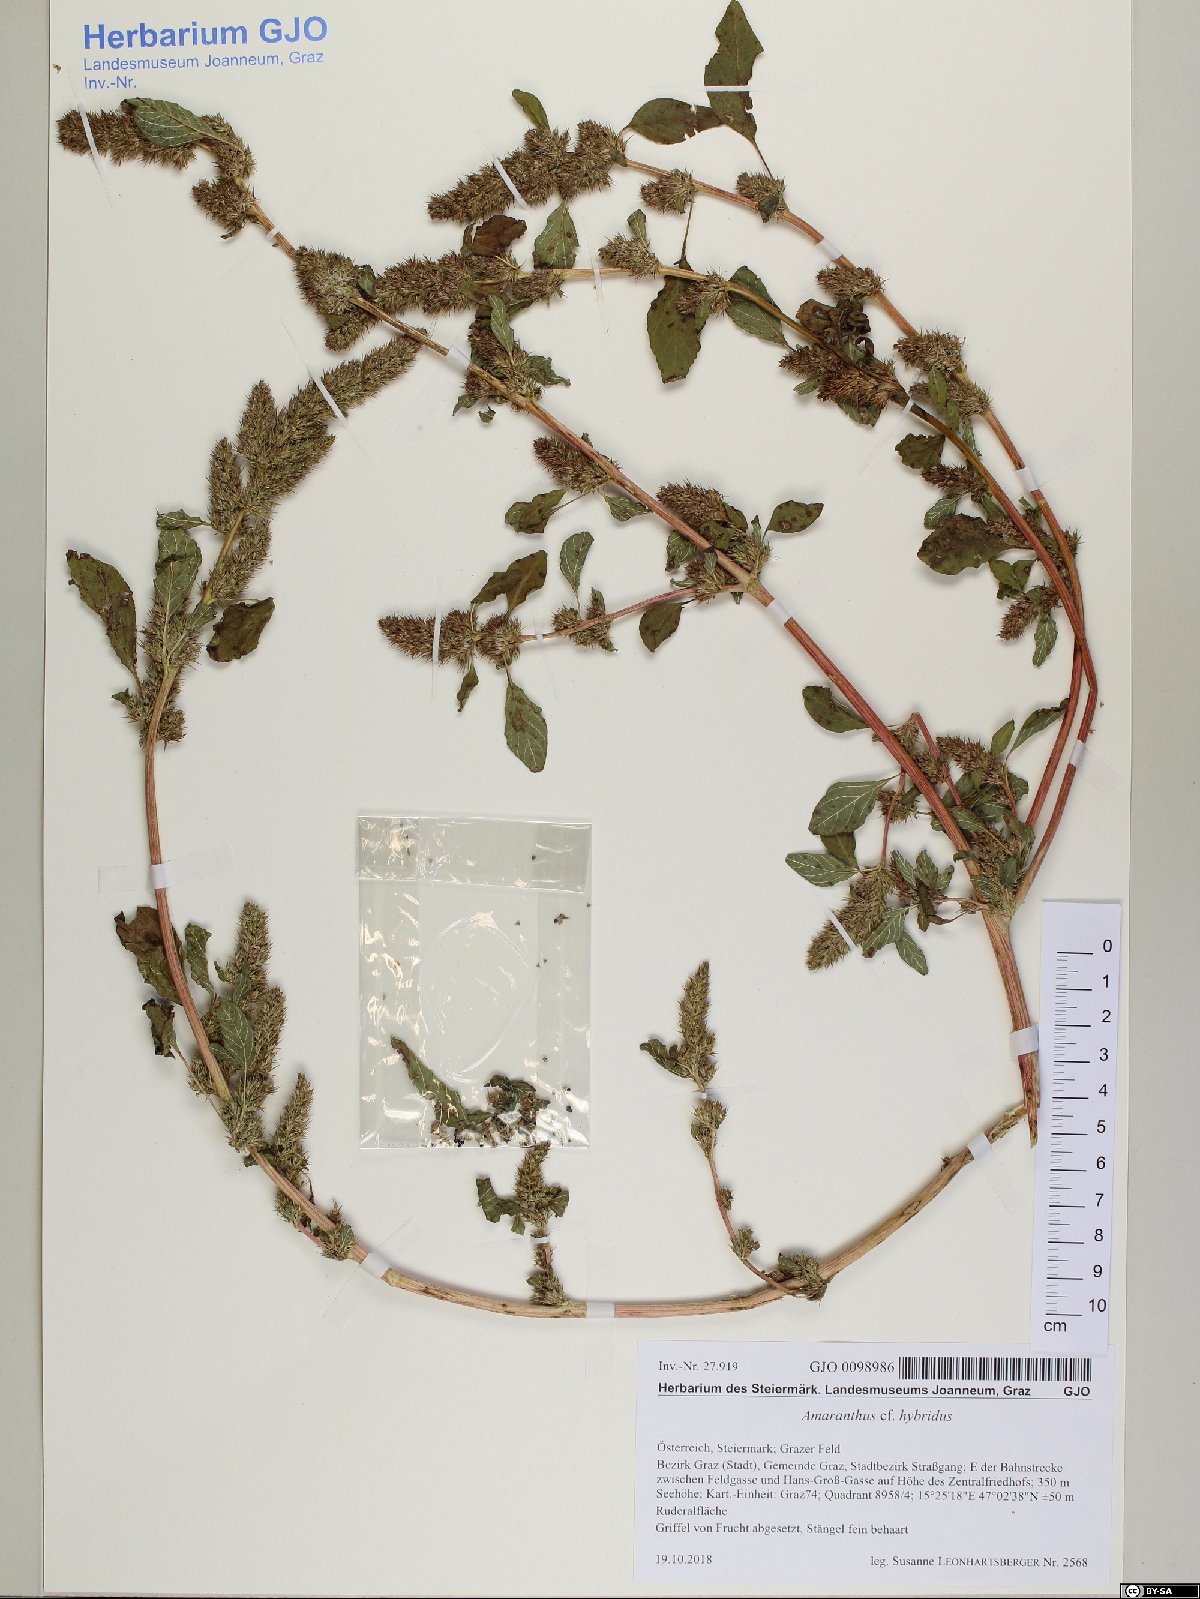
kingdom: Plantae
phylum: Tracheophyta
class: Magnoliopsida
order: Caryophyllales
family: Amaranthaceae
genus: Amaranthus
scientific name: Amaranthus hybridus
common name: Green amaranth
